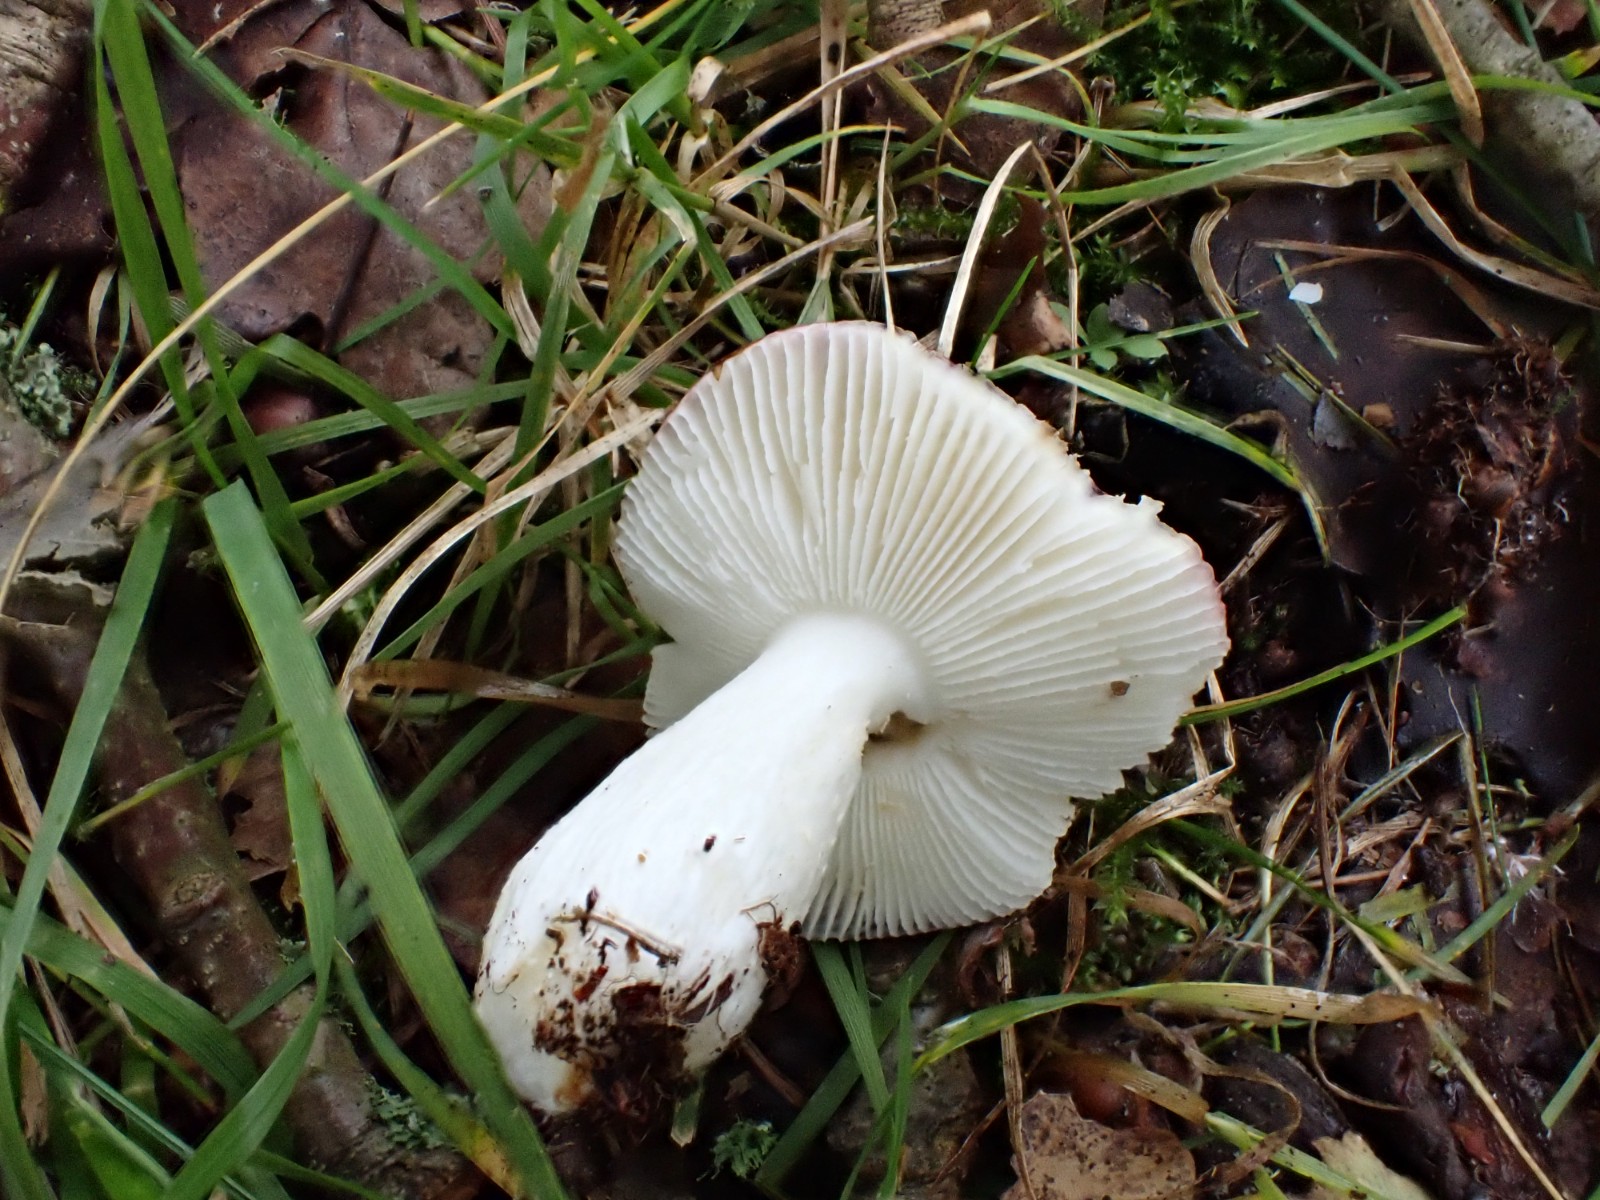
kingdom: Fungi
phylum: Basidiomycota
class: Agaricomycetes
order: Russulales
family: Russulaceae
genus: Russula
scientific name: Russula fragilis
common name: savbladet skørhat
